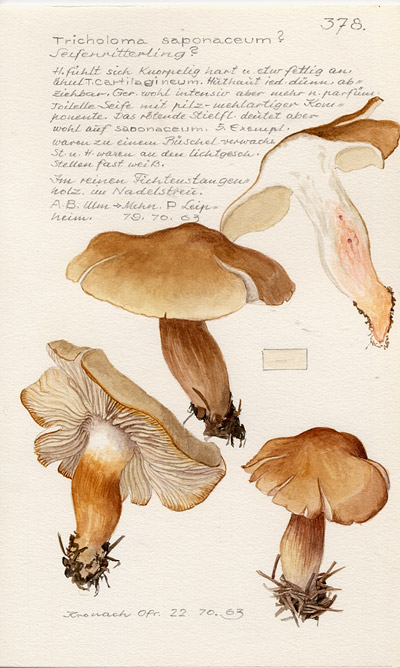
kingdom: Fungi
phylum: Basidiomycota
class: Agaricomycetes
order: Agaricales
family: Tricholomataceae
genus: Tricholoma
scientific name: Tricholoma saponaceum
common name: Soapy trich
